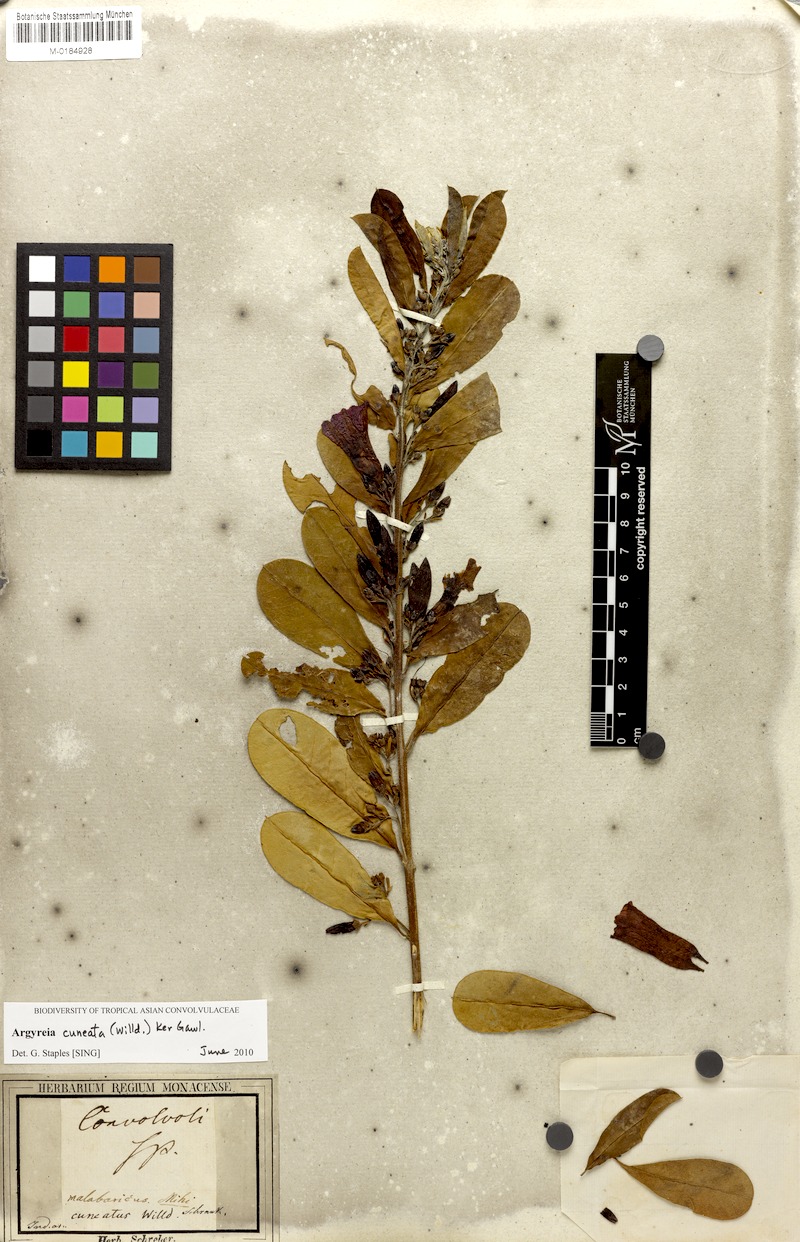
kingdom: Plantae
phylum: Tracheophyta
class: Magnoliopsida
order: Solanales
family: Convolvulaceae
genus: Argyreia
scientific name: Argyreia cuneata
